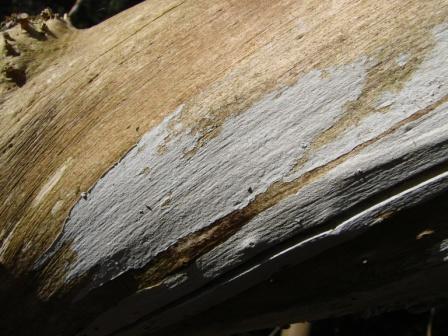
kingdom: Fungi
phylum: Basidiomycota
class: Agaricomycetes
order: Agaricales
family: Radulomycetaceae
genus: Radulomyces
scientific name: Radulomyces confluens
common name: glat naftalinskind
